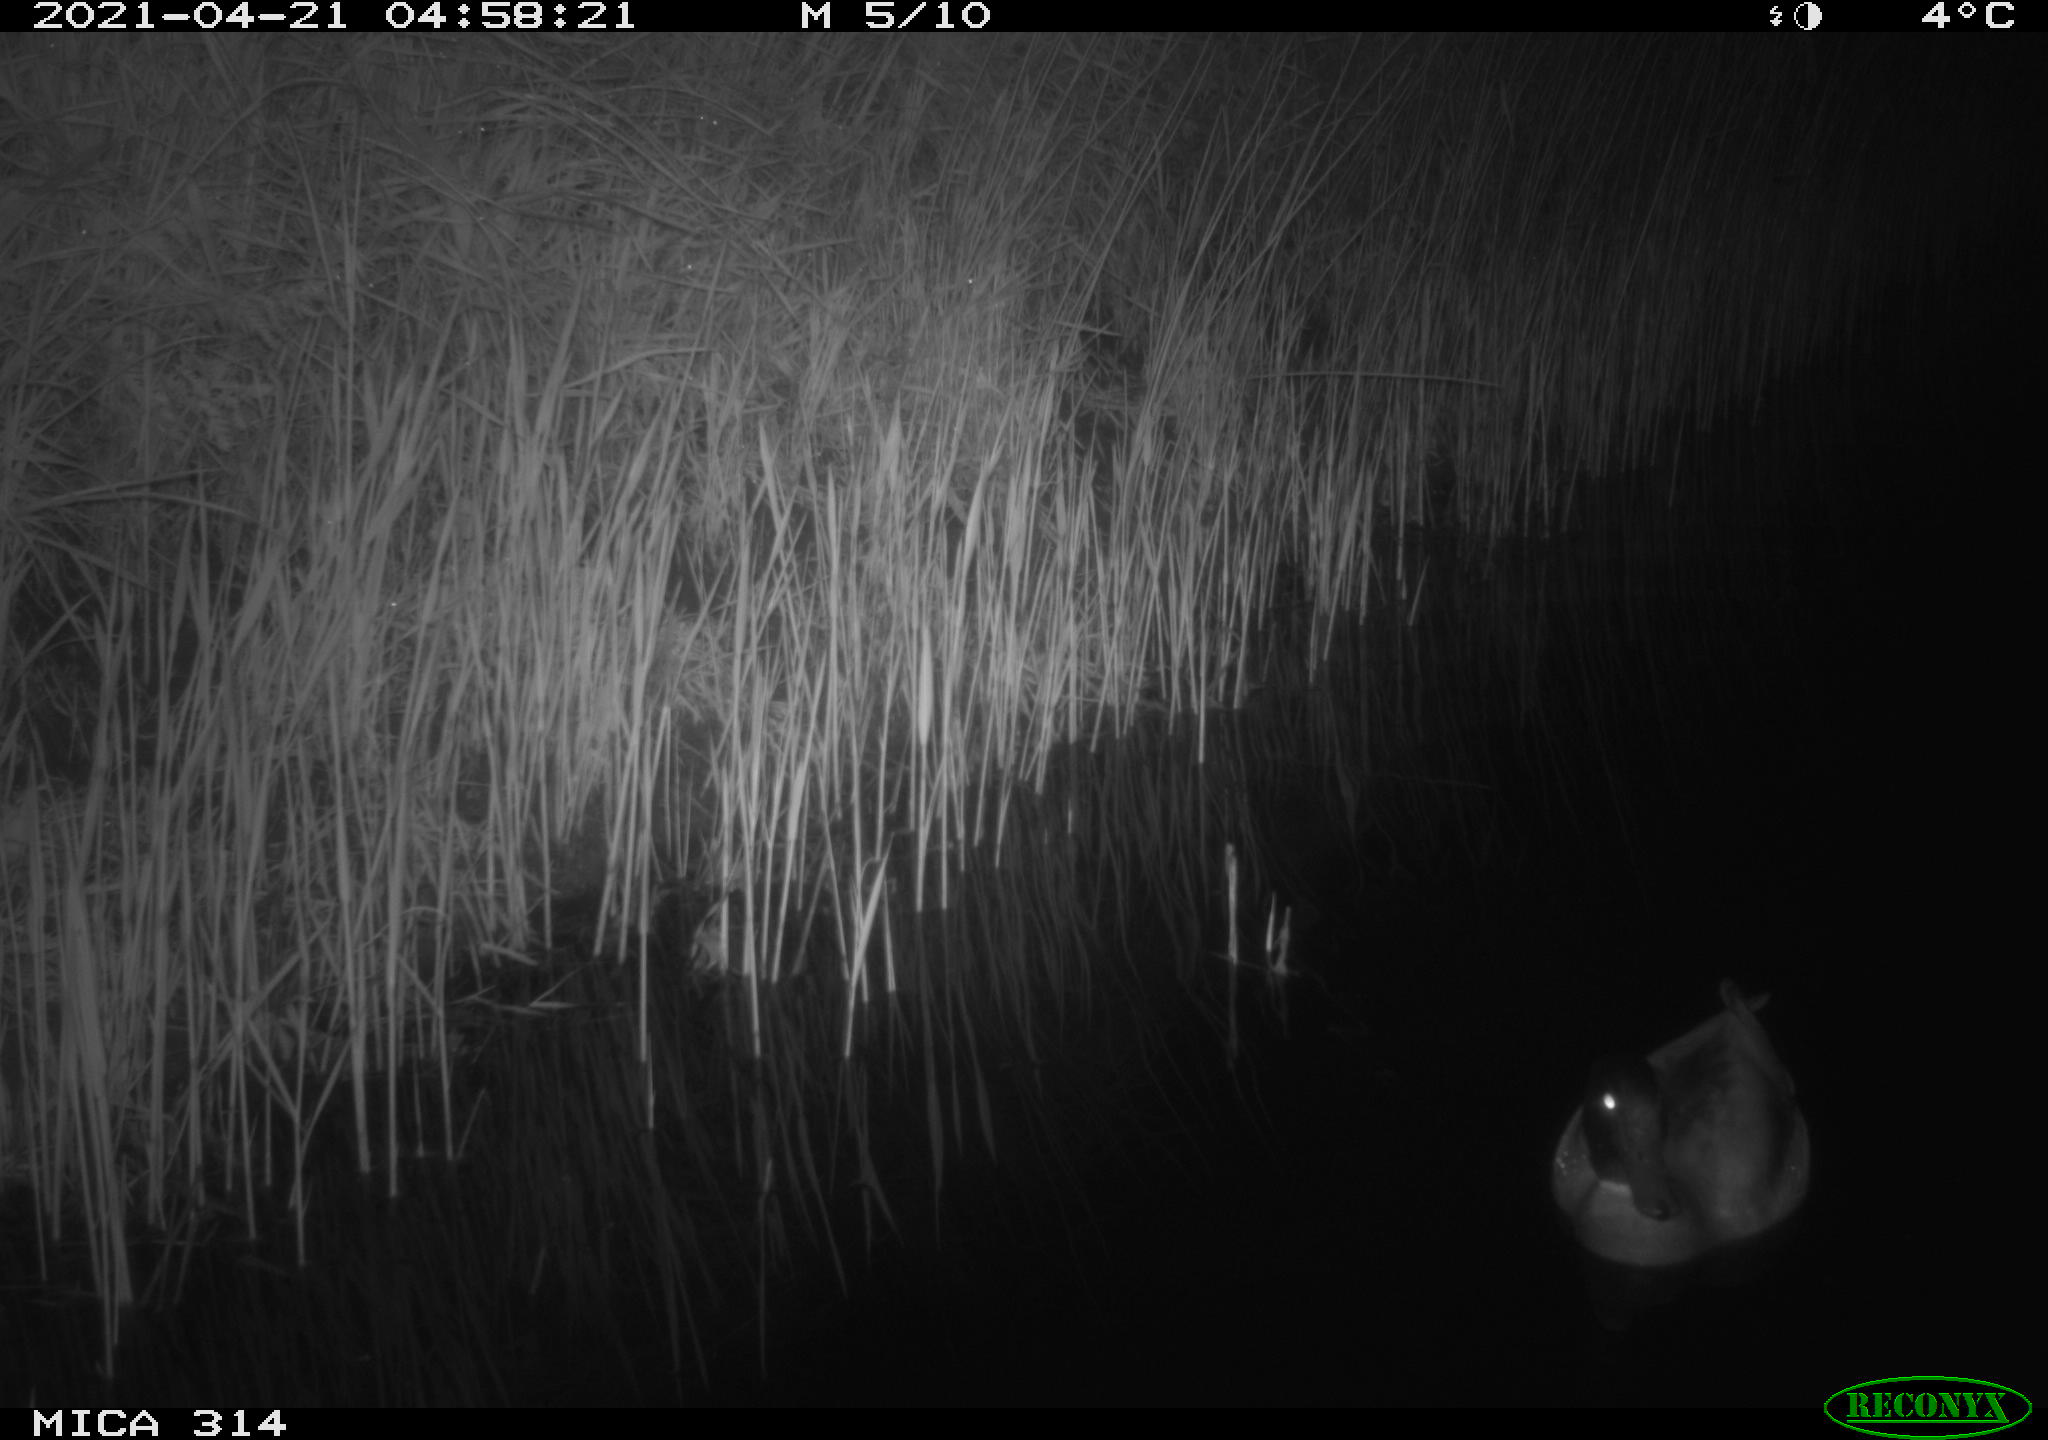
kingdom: Animalia
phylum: Chordata
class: Aves
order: Anseriformes
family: Anatidae
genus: Anas
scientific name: Anas platyrhynchos
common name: Mallard
